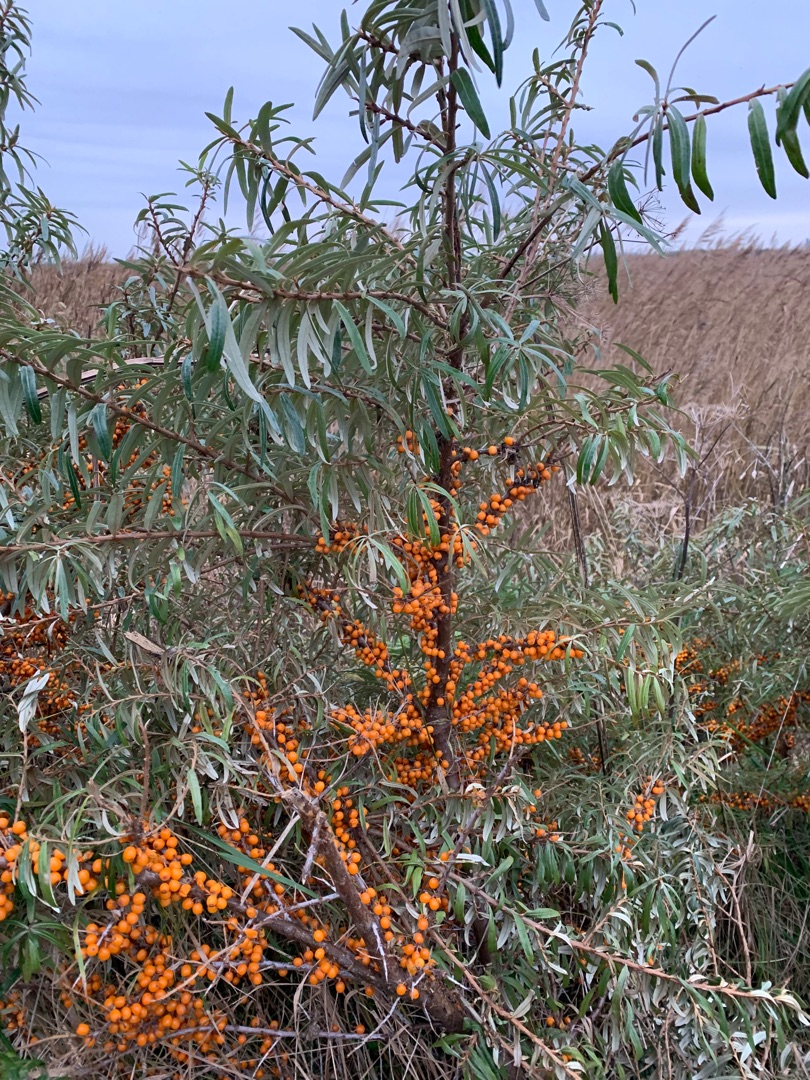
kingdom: Plantae
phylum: Tracheophyta
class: Magnoliopsida
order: Rosales
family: Elaeagnaceae
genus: Hippophae
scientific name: Hippophae rhamnoides
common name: Havtorn
